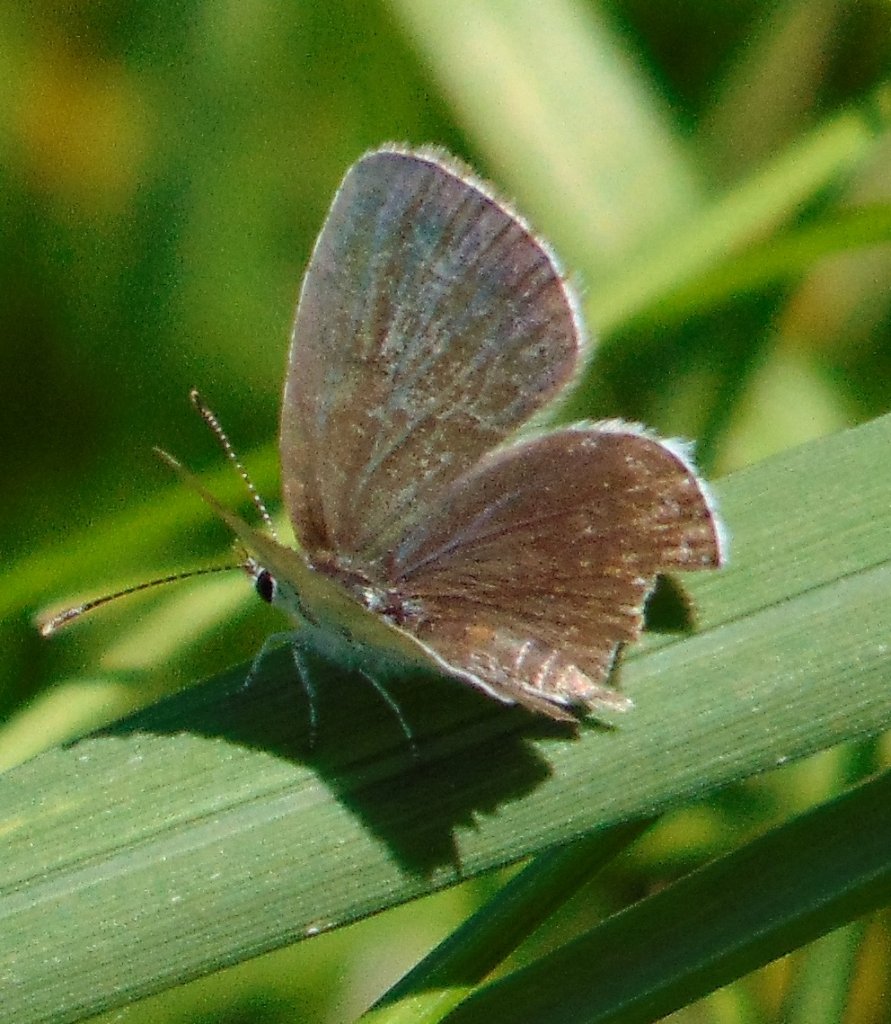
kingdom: Animalia
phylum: Arthropoda
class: Insecta
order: Lepidoptera
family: Lycaenidae
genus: Elkalyce
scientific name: Elkalyce comyntas
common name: Eastern Tailed-Blue
